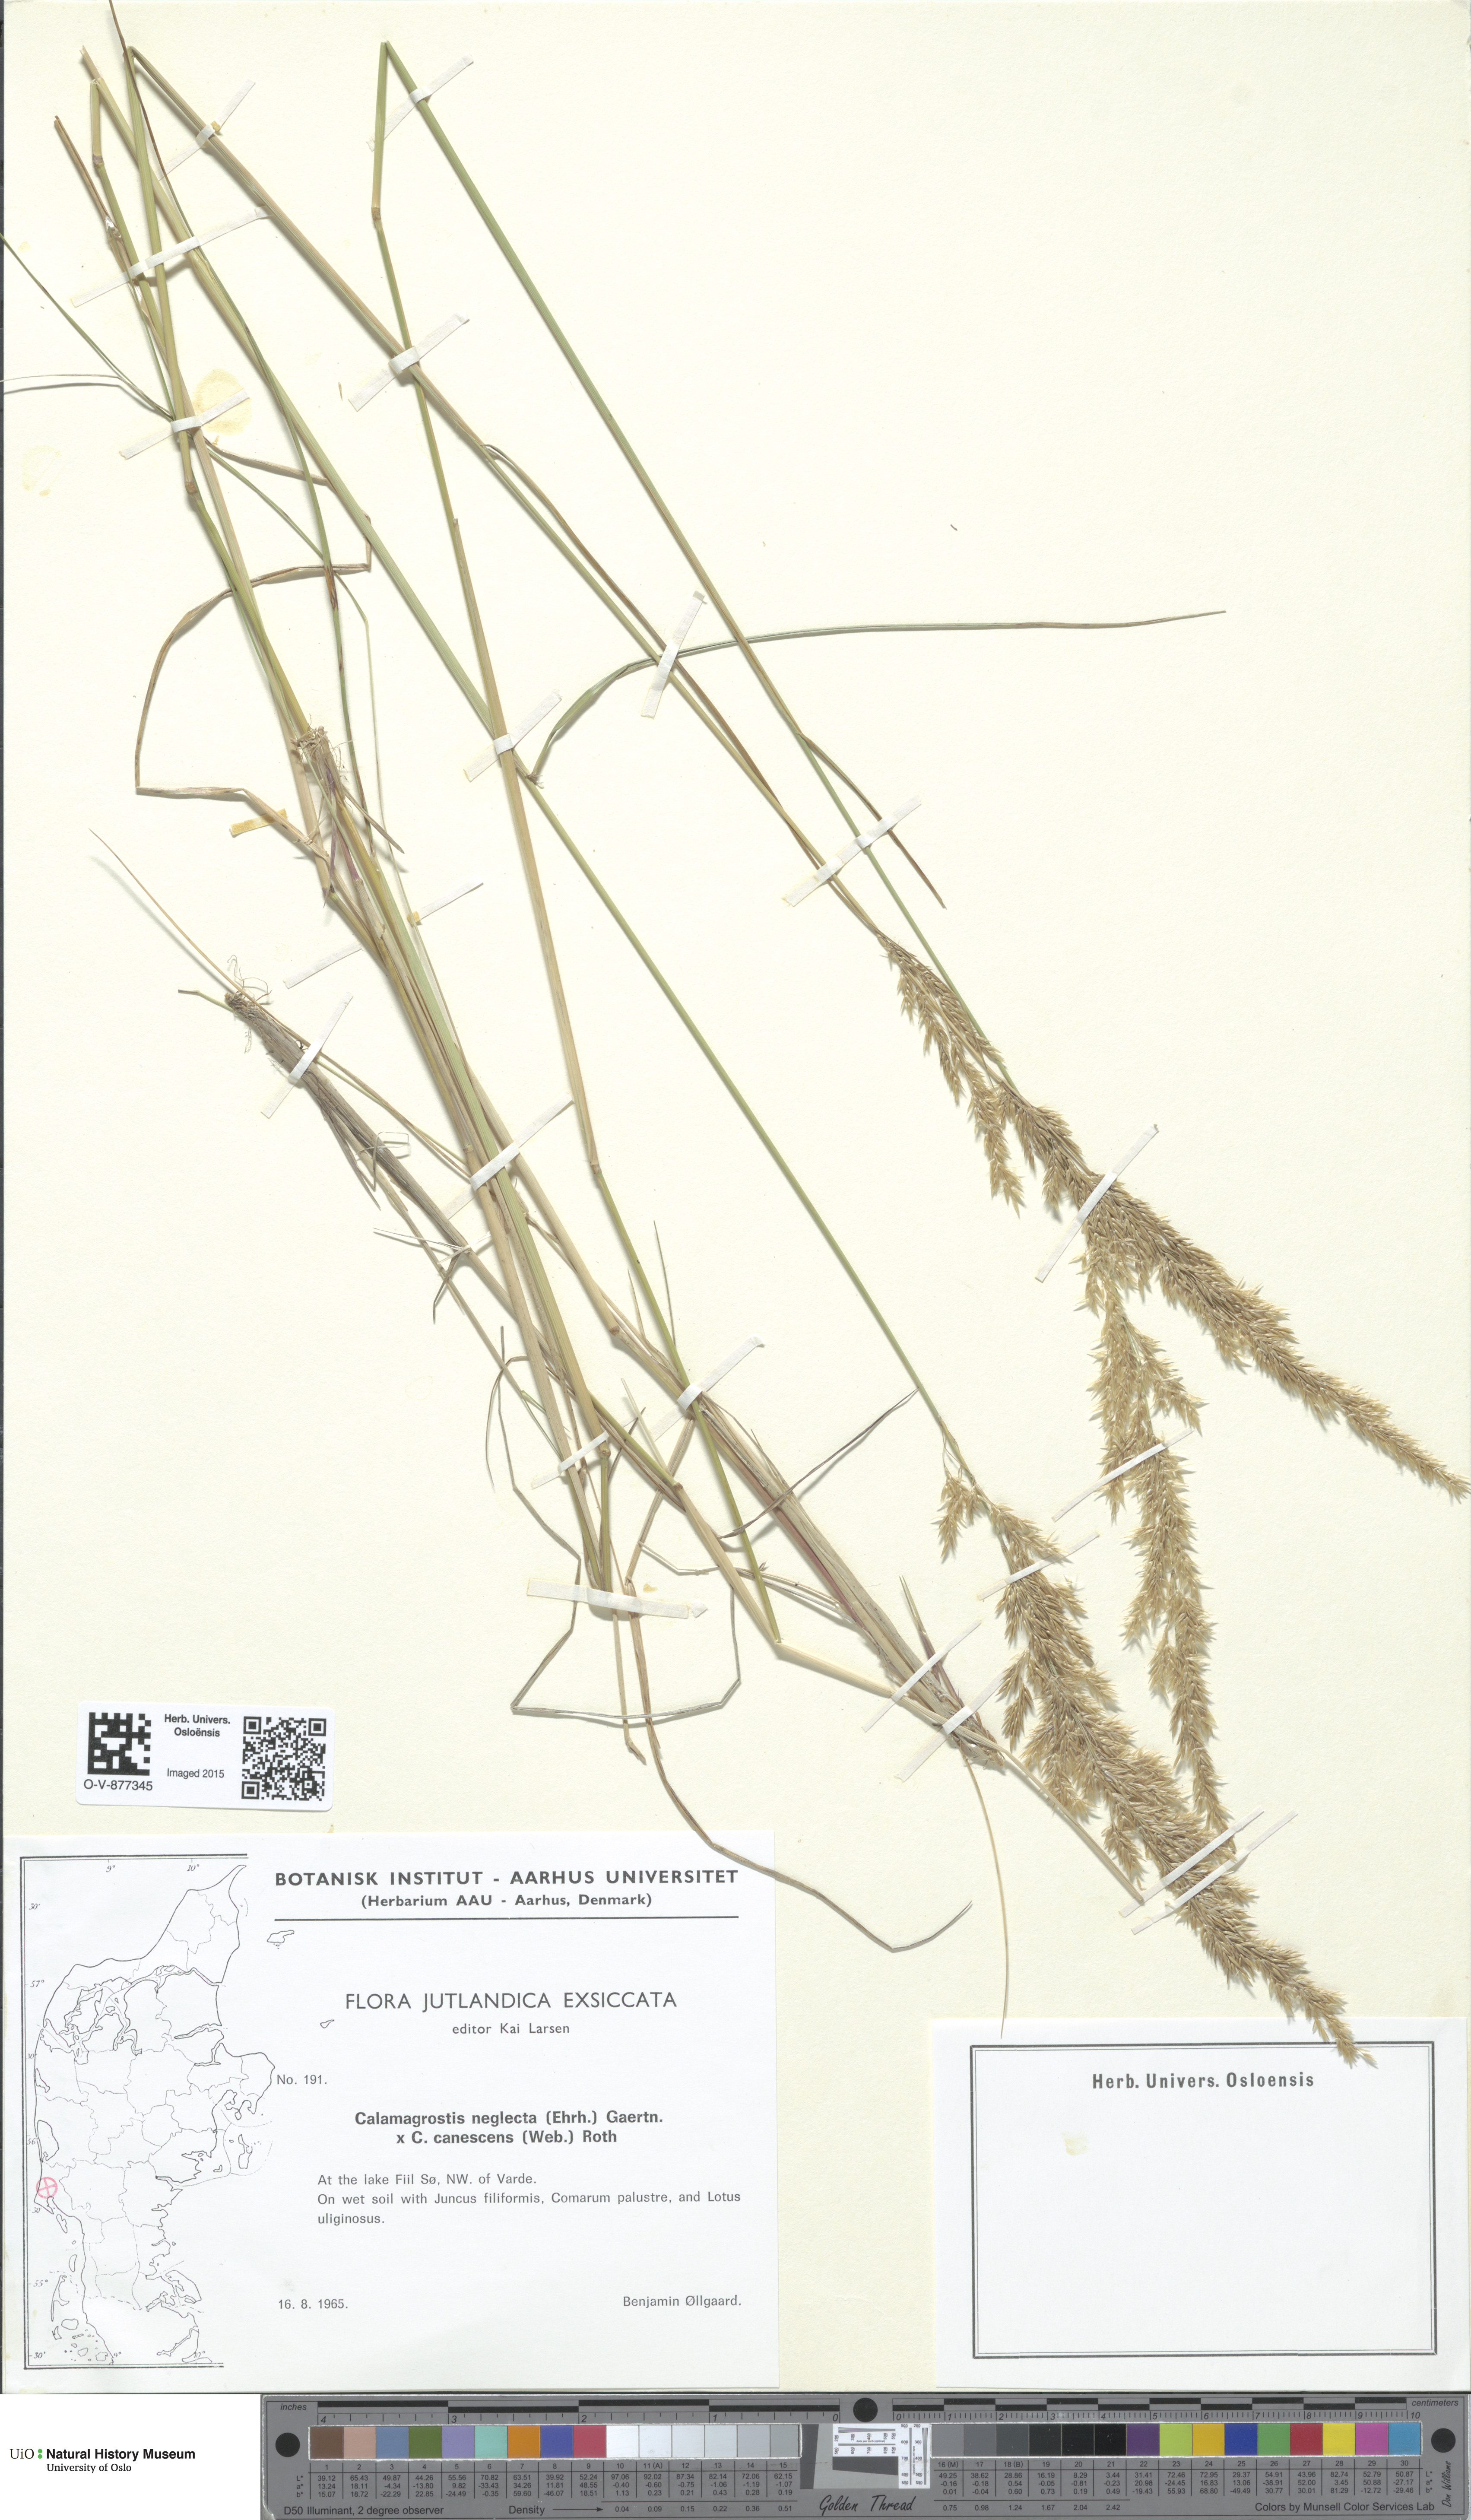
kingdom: Plantae
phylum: Tracheophyta
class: Liliopsida
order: Poales
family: Poaceae
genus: Calamagrostis
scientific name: Calamagrostis
